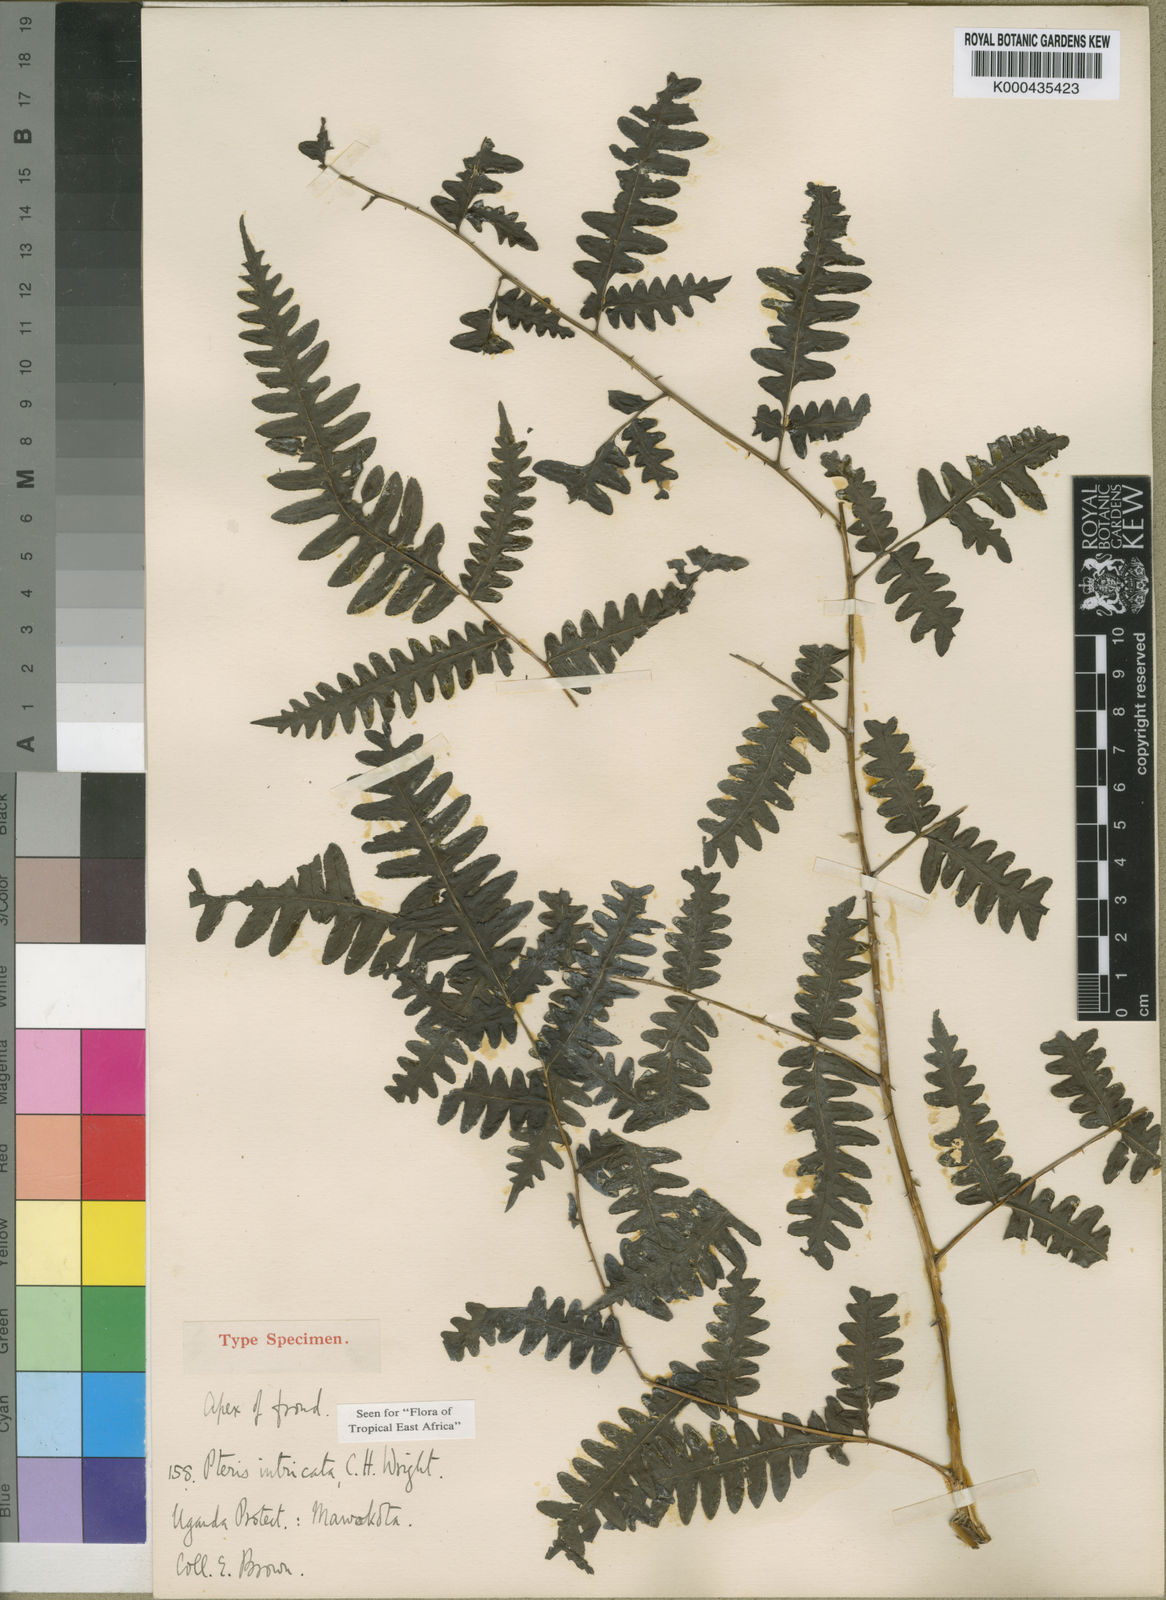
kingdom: Plantae
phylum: Tracheophyta
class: Polypodiopsida
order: Polypodiales
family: Pteridaceae
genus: Pteris
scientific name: Pteris intricata
